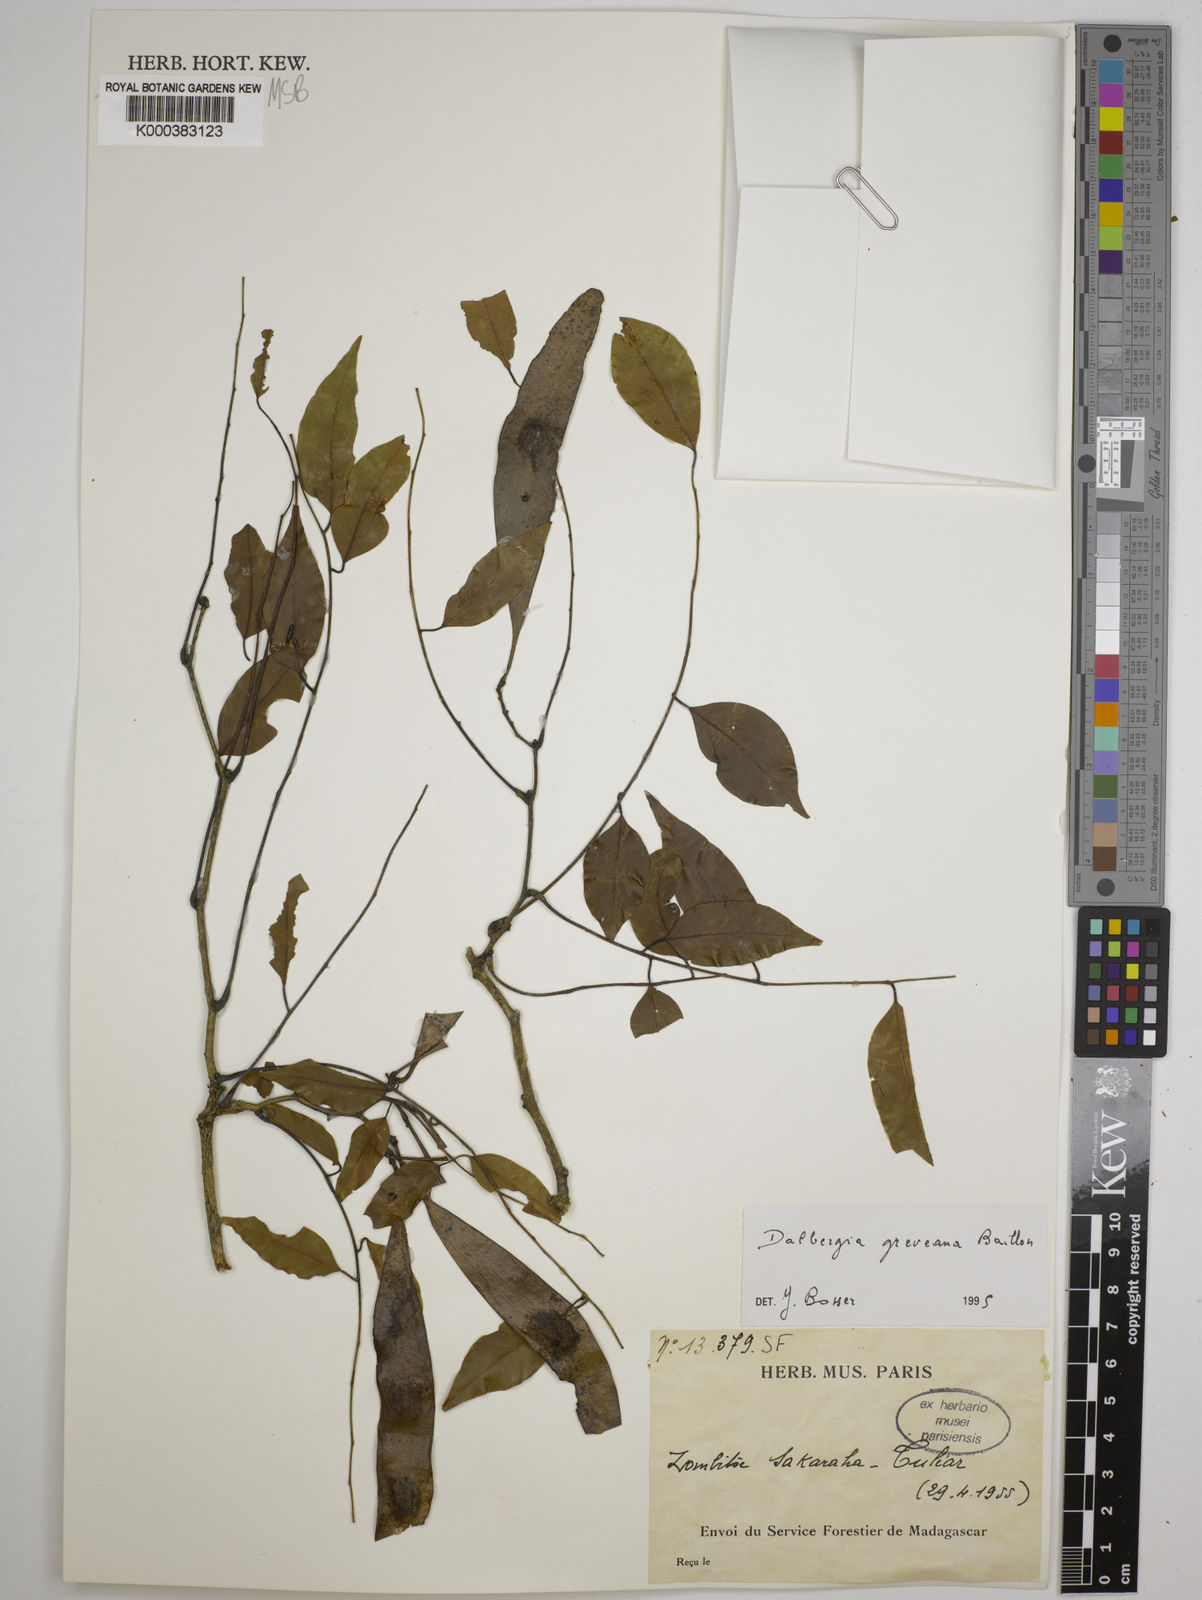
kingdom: Plantae
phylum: Tracheophyta
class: Magnoliopsida
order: Fabales
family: Fabaceae
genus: Dalbergia
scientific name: Dalbergia greveana
